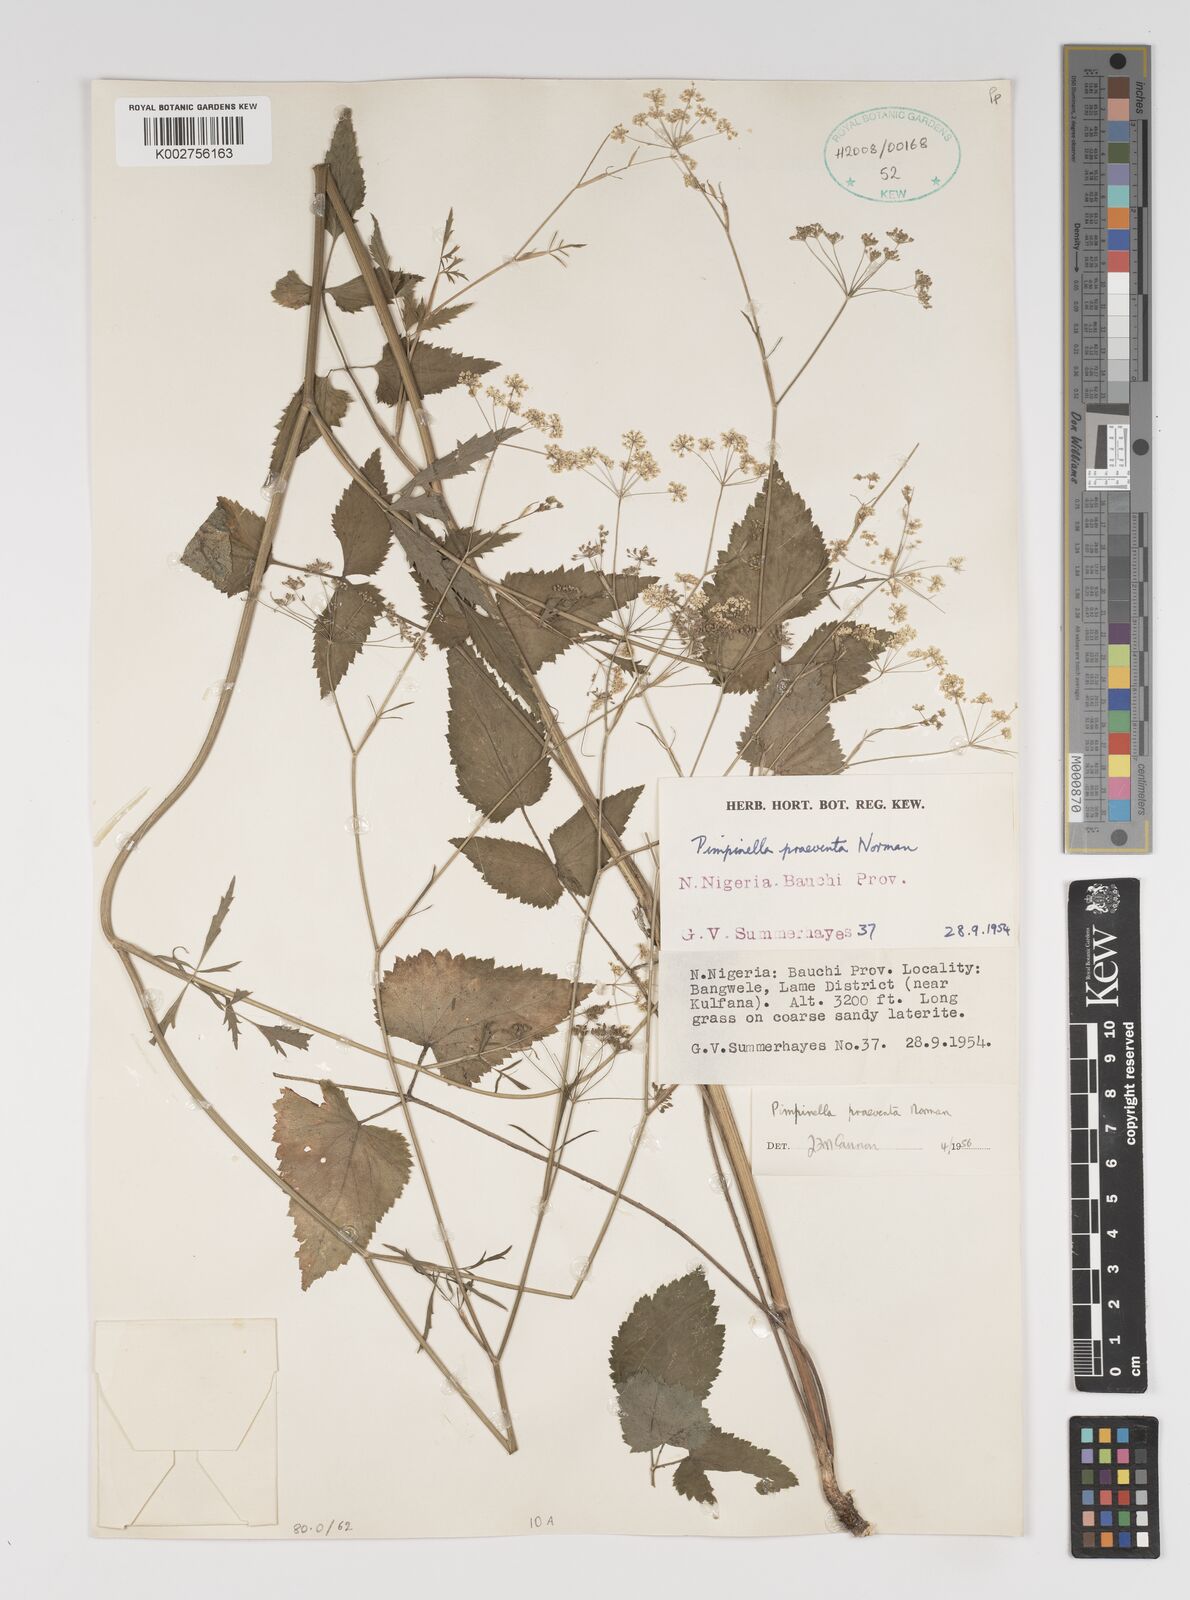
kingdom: Plantae
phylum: Tracheophyta
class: Magnoliopsida
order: Apiales
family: Apiaceae
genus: Pimpinella
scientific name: Pimpinella hirtella
